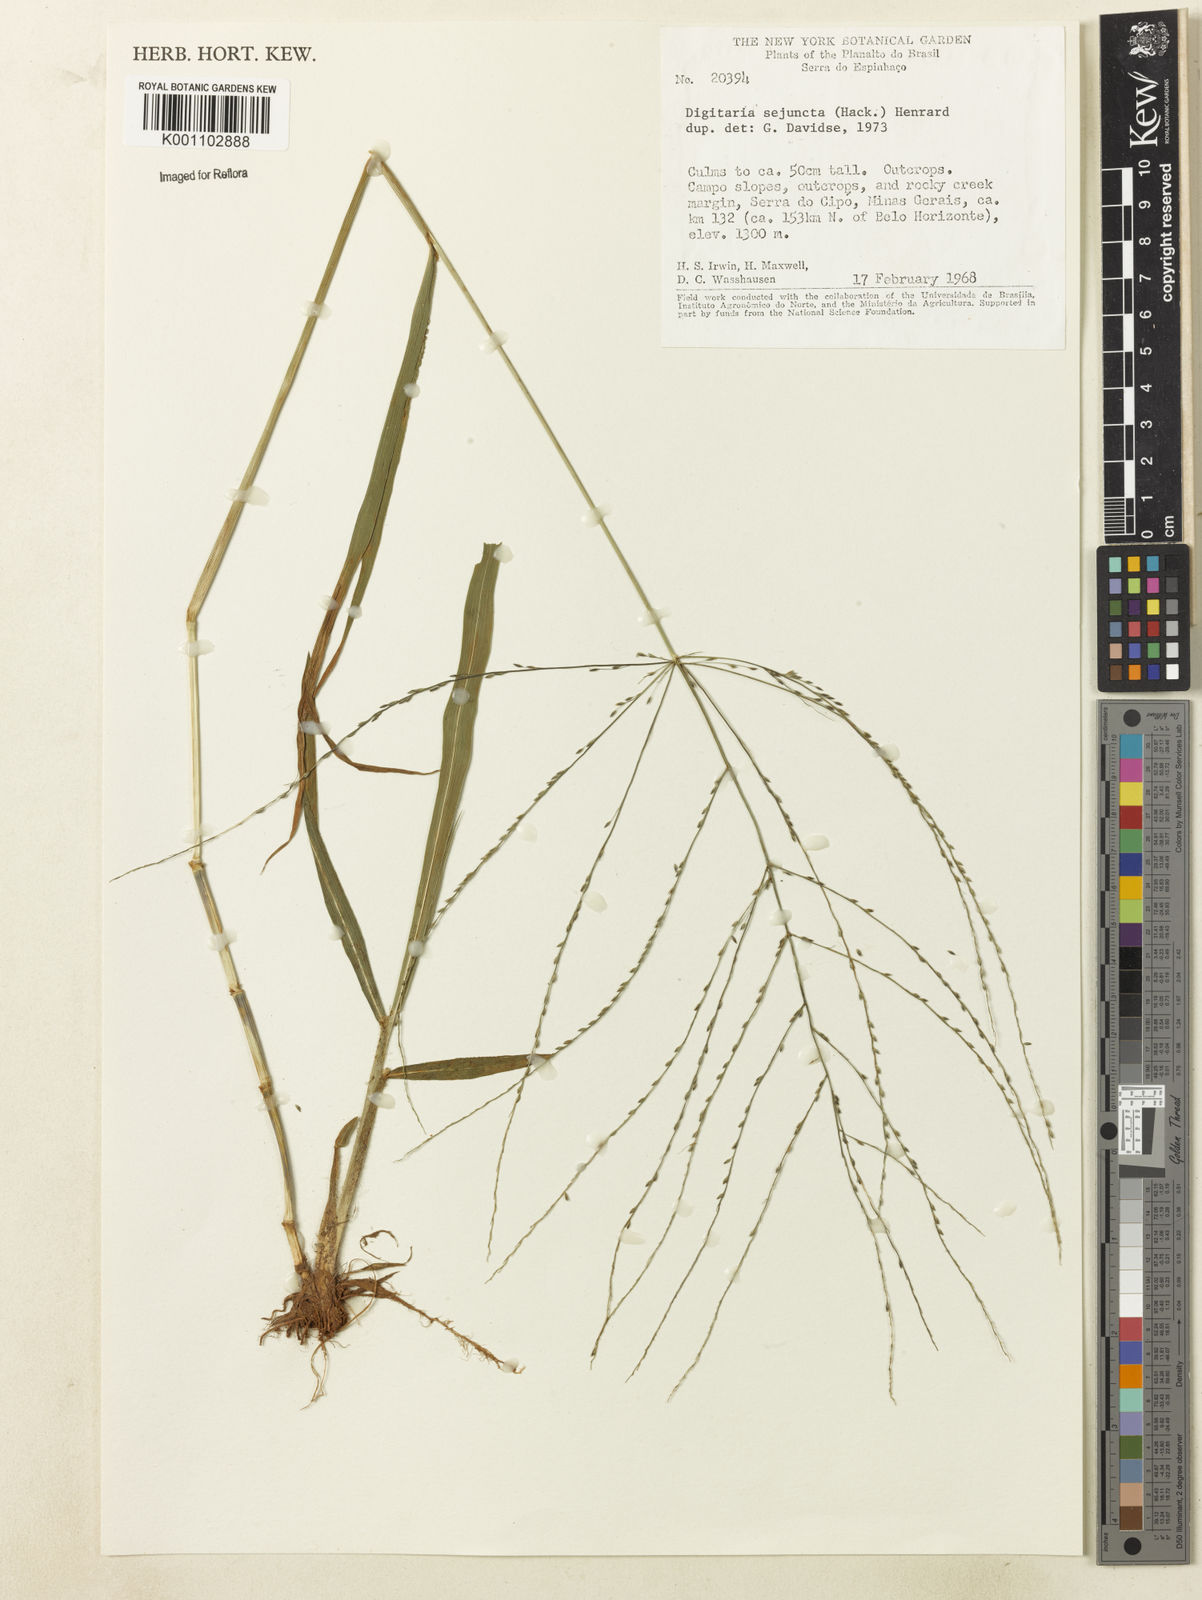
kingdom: Plantae
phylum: Tracheophyta
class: Liliopsida
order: Poales
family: Poaceae
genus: Digitaria
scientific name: Digitaria sejuncta
